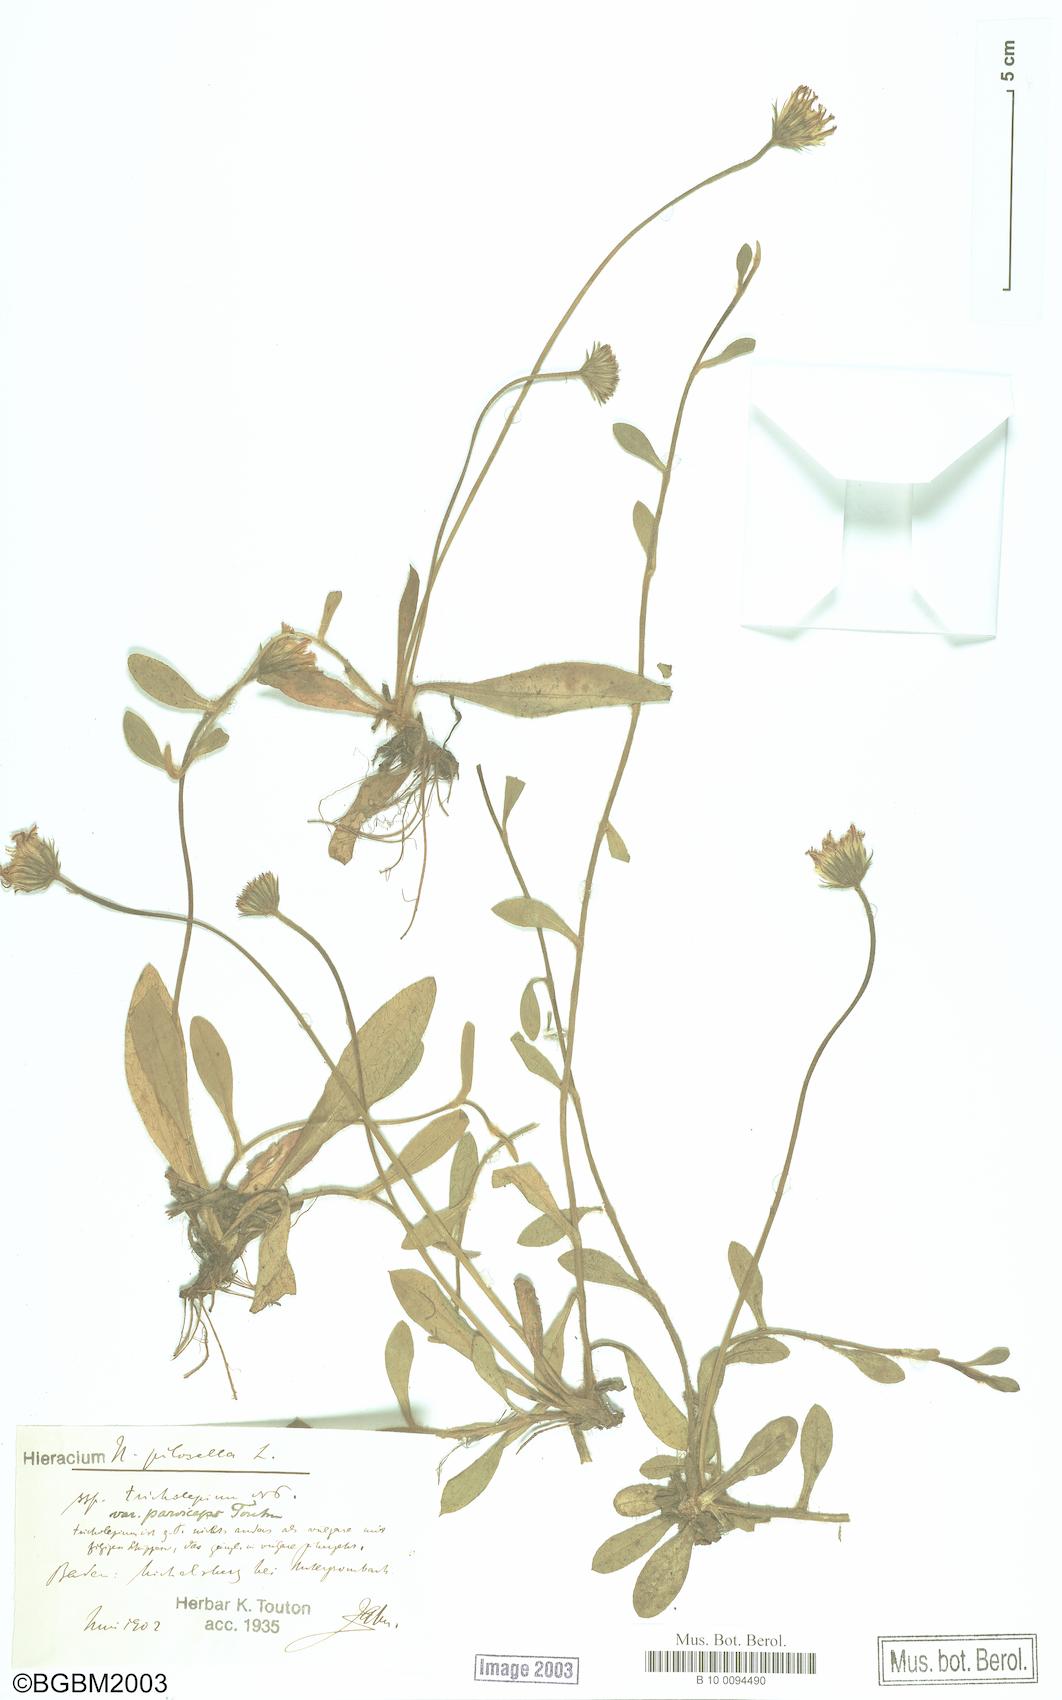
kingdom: Plantae
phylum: Tracheophyta
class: Magnoliopsida
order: Asterales
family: Asteraceae
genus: Pilosella
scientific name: Pilosella officinarum
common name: Mouse-ear hawkweed
